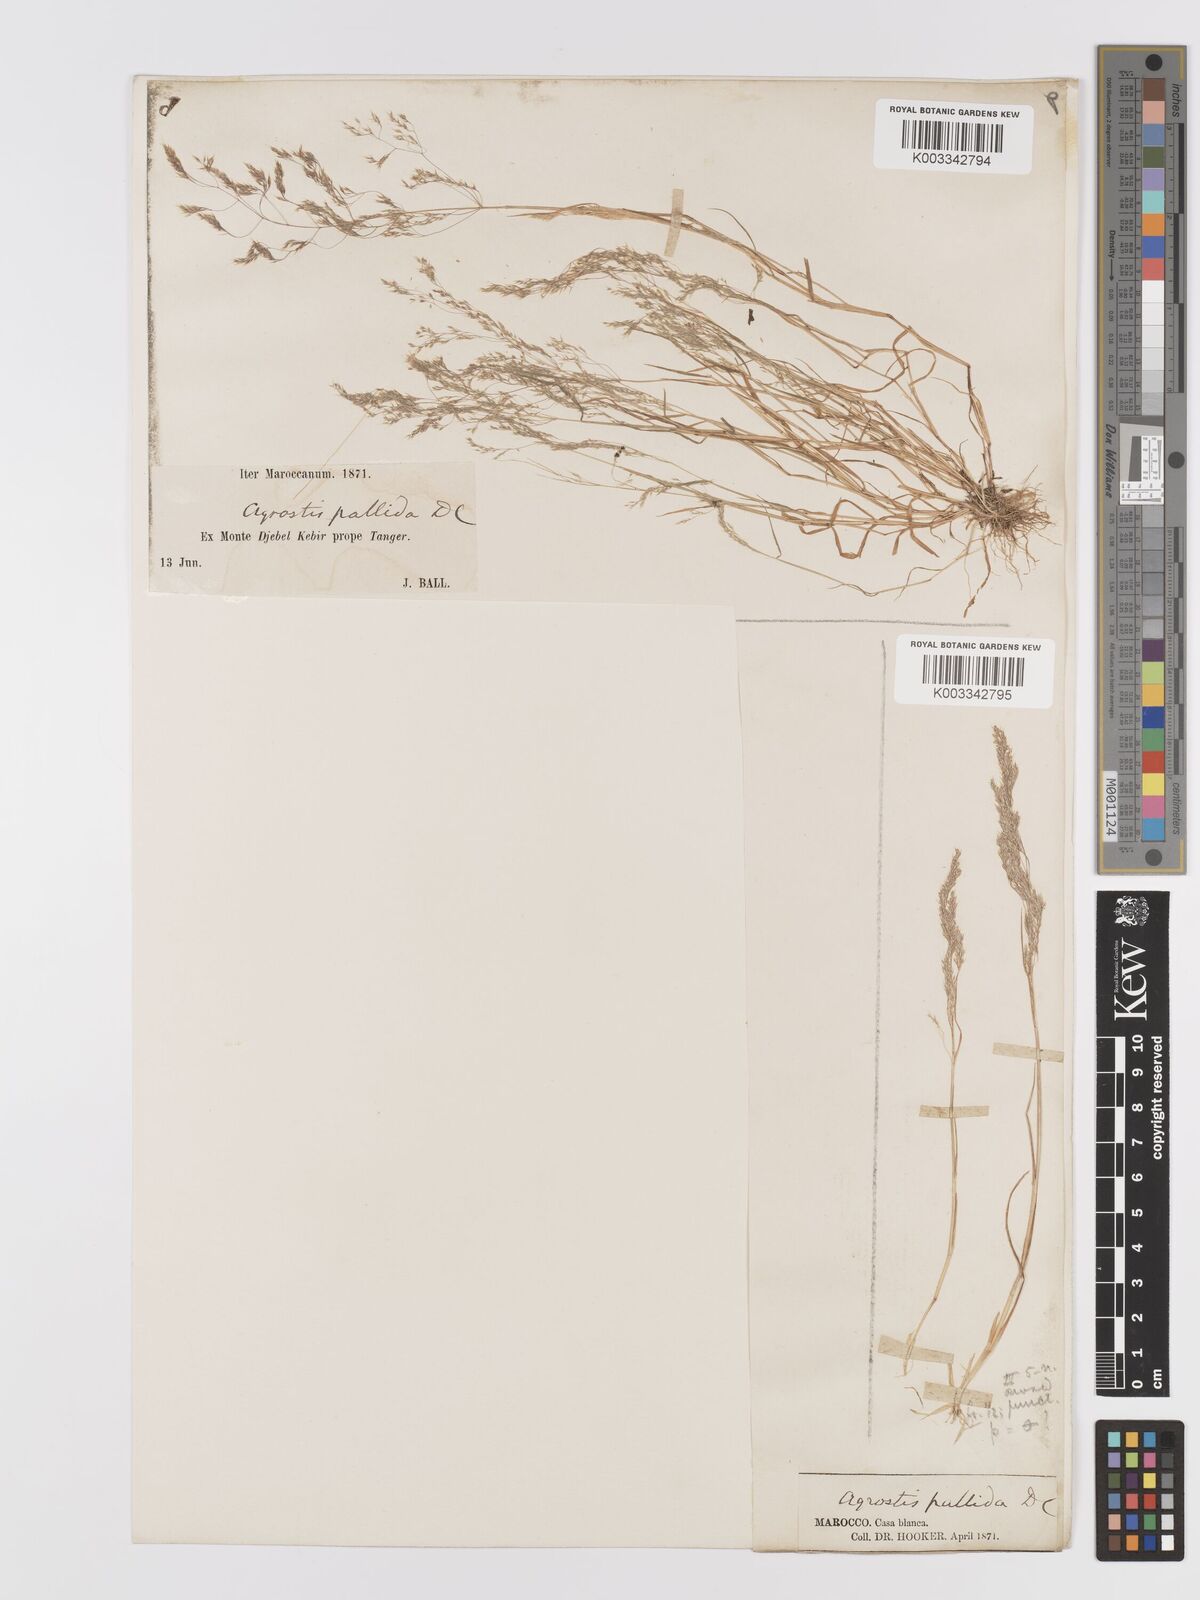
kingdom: Plantae
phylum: Tracheophyta
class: Liliopsida
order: Poales
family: Poaceae
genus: Agrostis
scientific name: Agrostis pourretii
